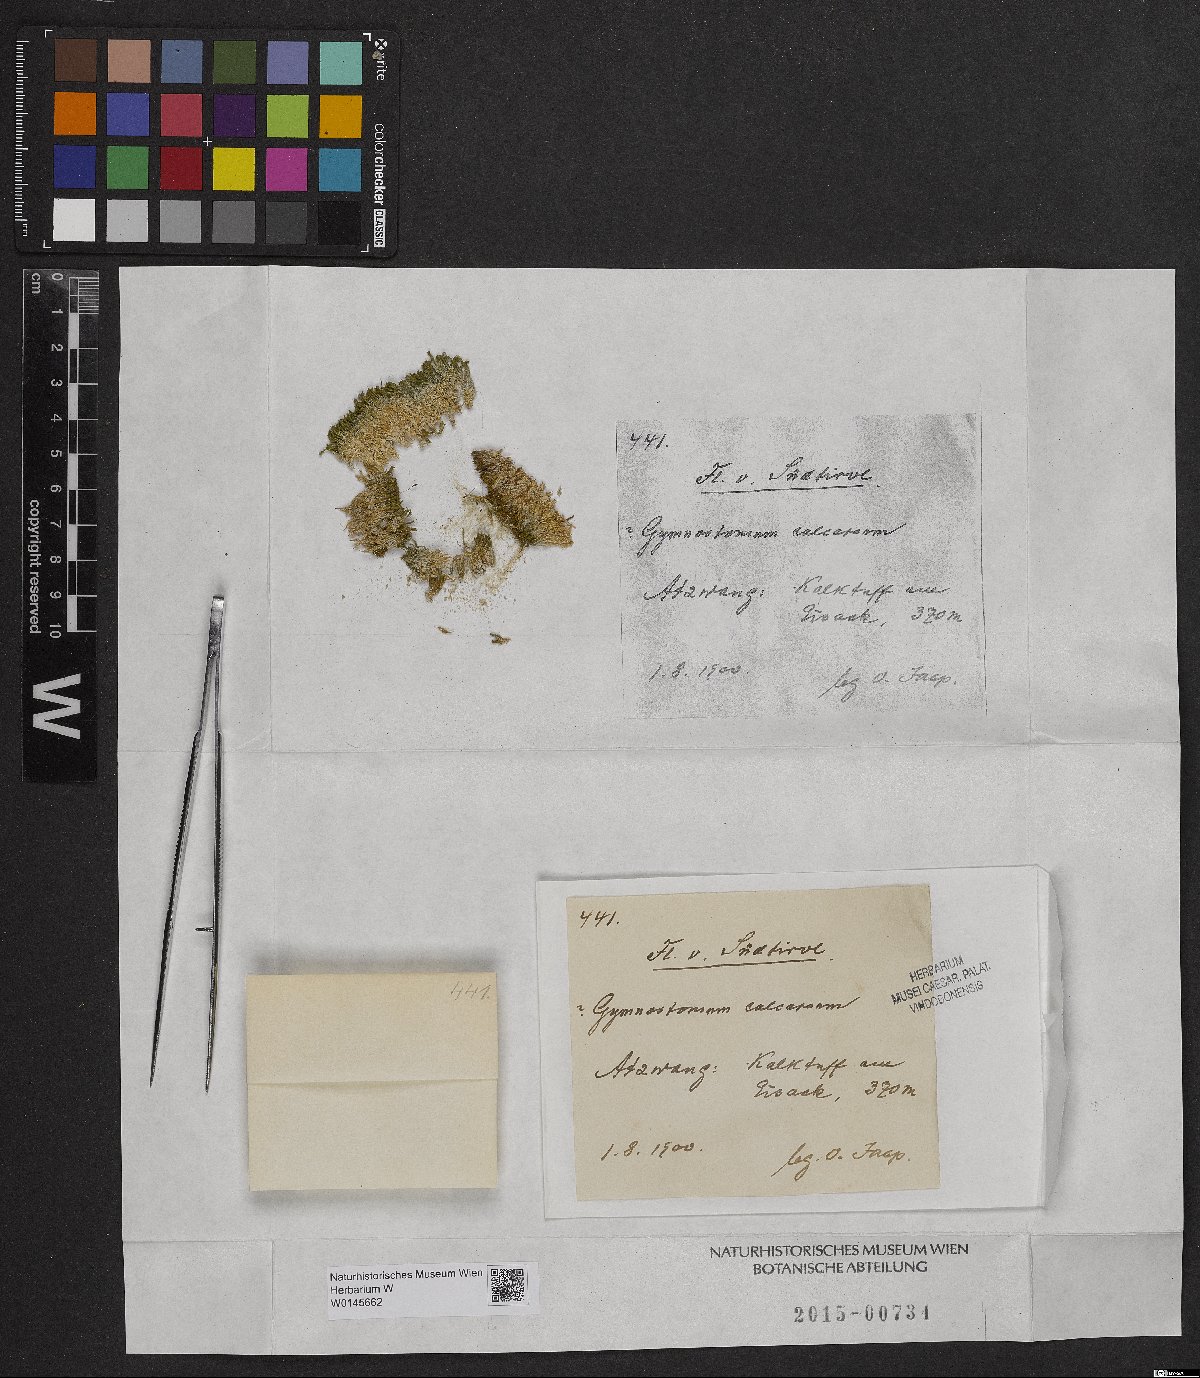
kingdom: Plantae
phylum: Bryophyta
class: Bryopsida
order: Pottiales
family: Pottiaceae
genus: Gymnostomum
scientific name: Gymnostomum calcareum
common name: Blunt-leaf tufa-moss
